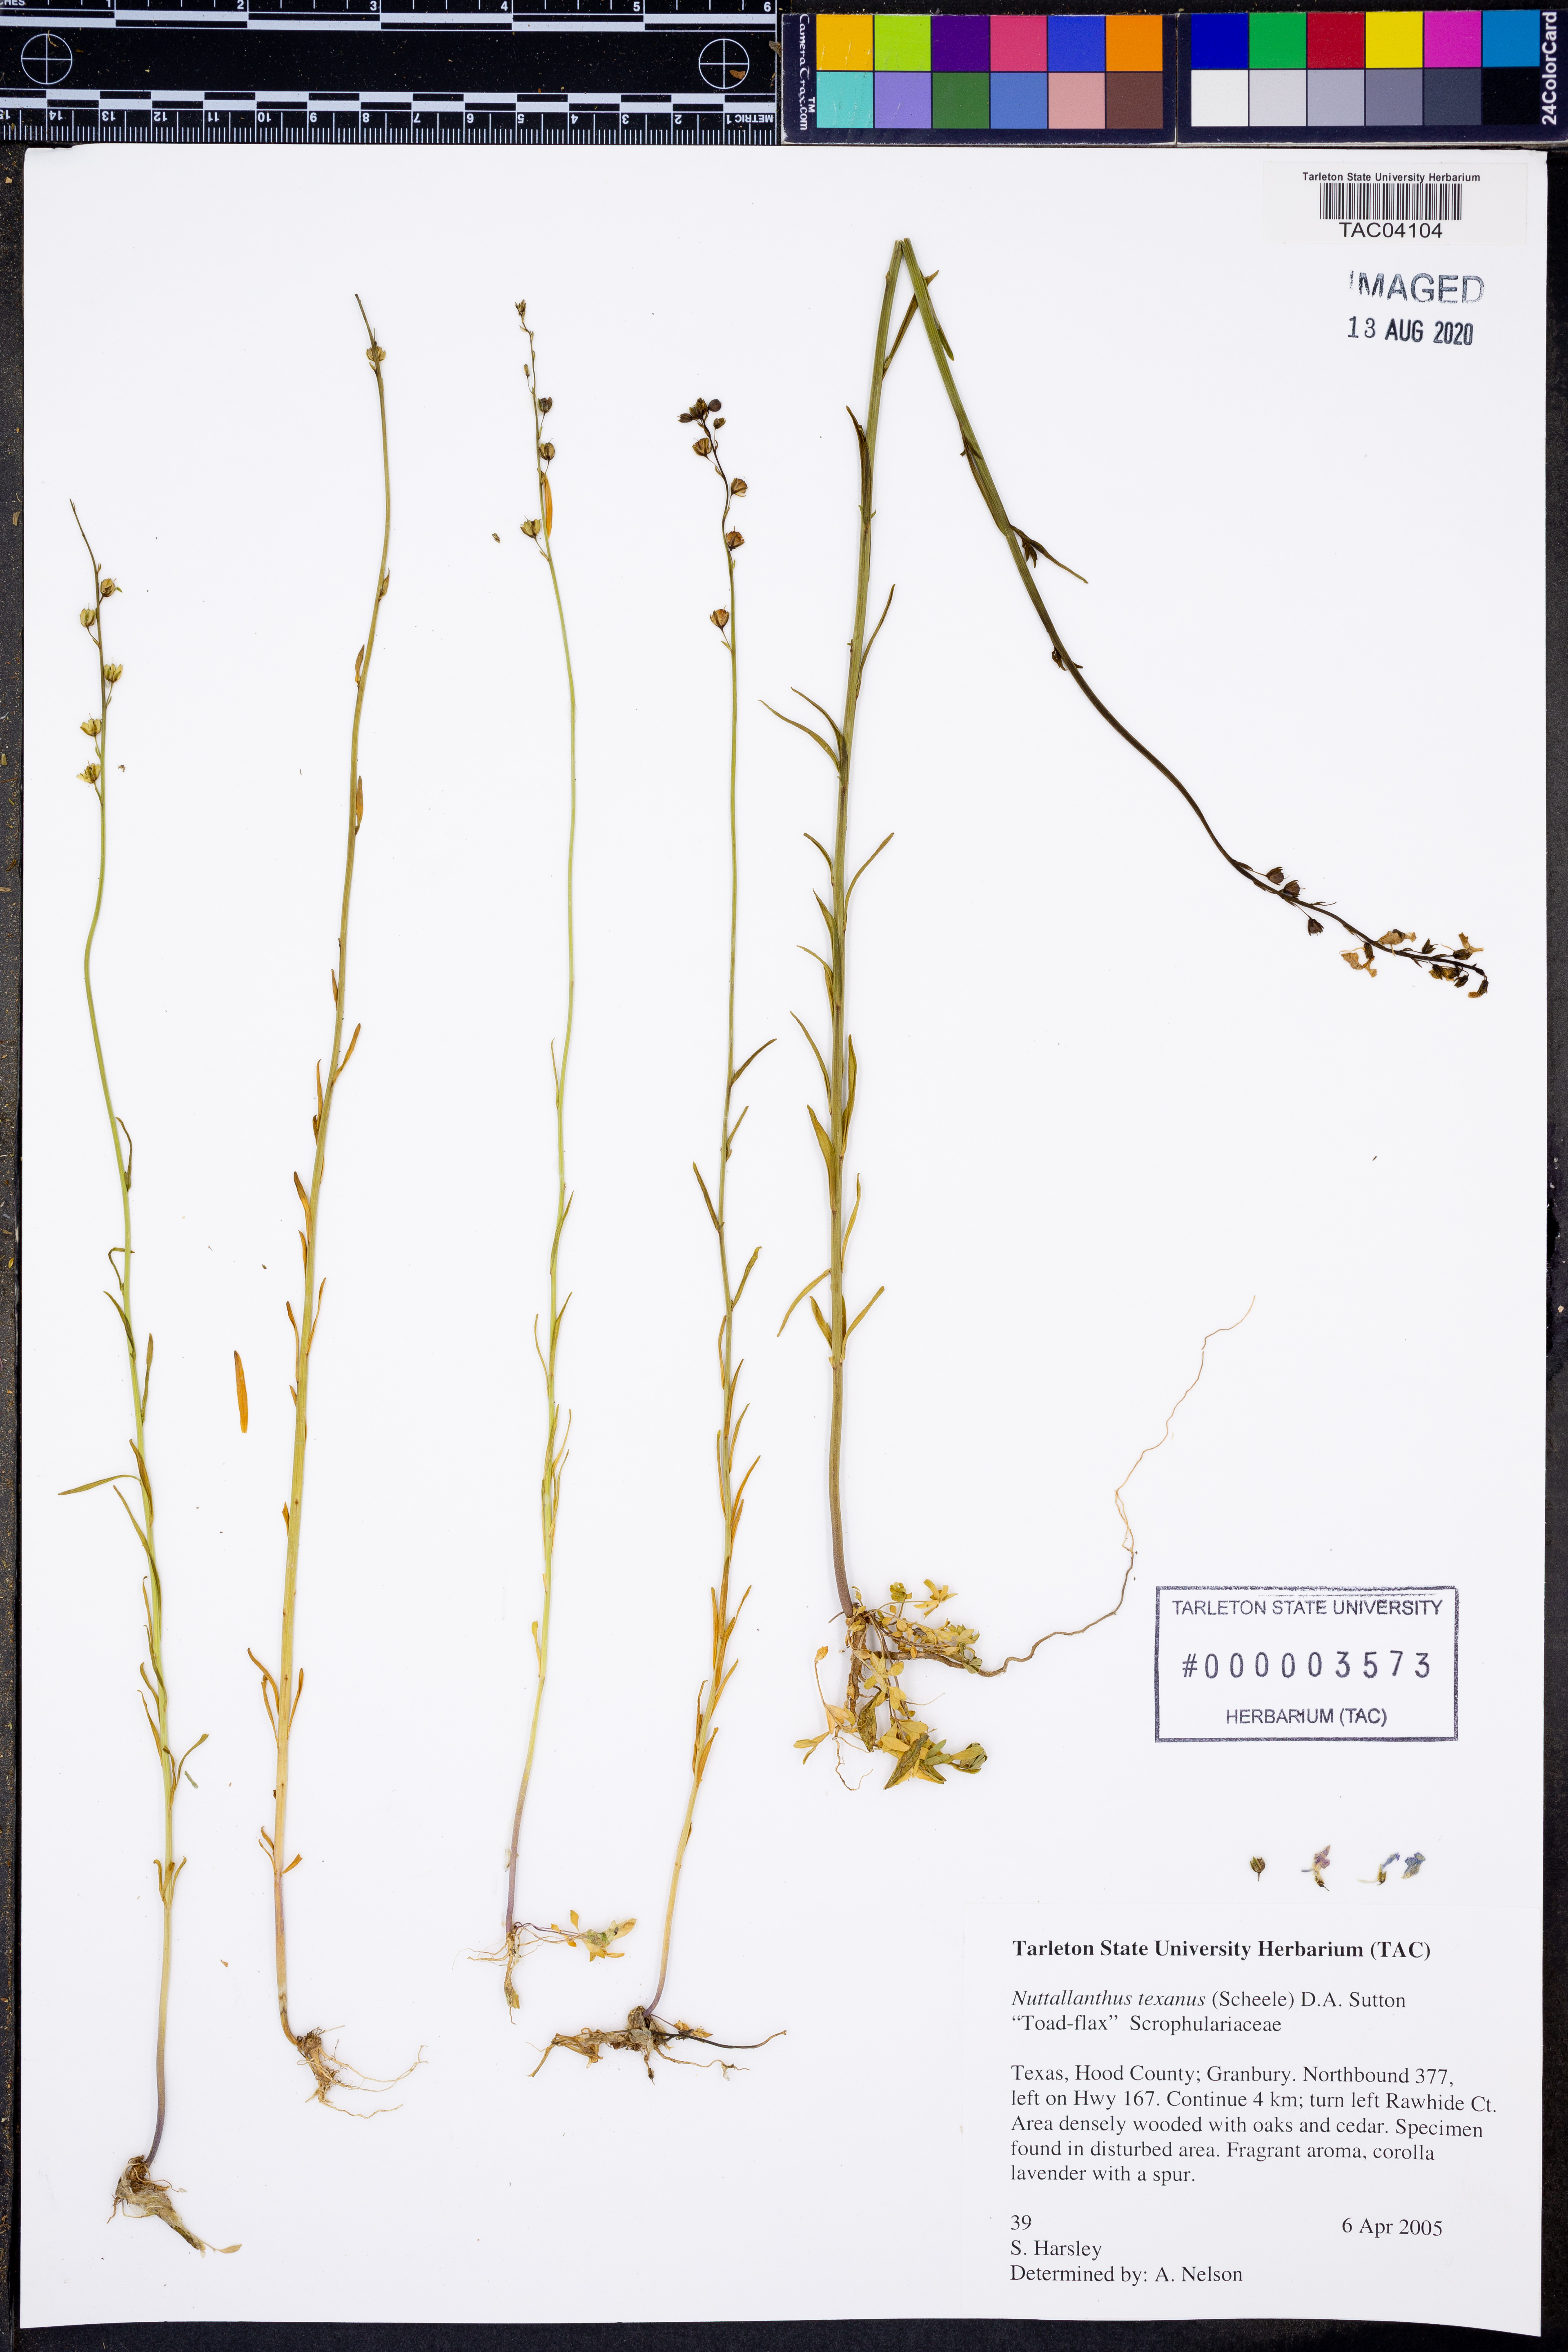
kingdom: Plantae
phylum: Tracheophyta
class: Magnoliopsida
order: Lamiales
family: Plantaginaceae
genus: Nuttallanthus
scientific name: Nuttallanthus texanus
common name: Texas toadflax
